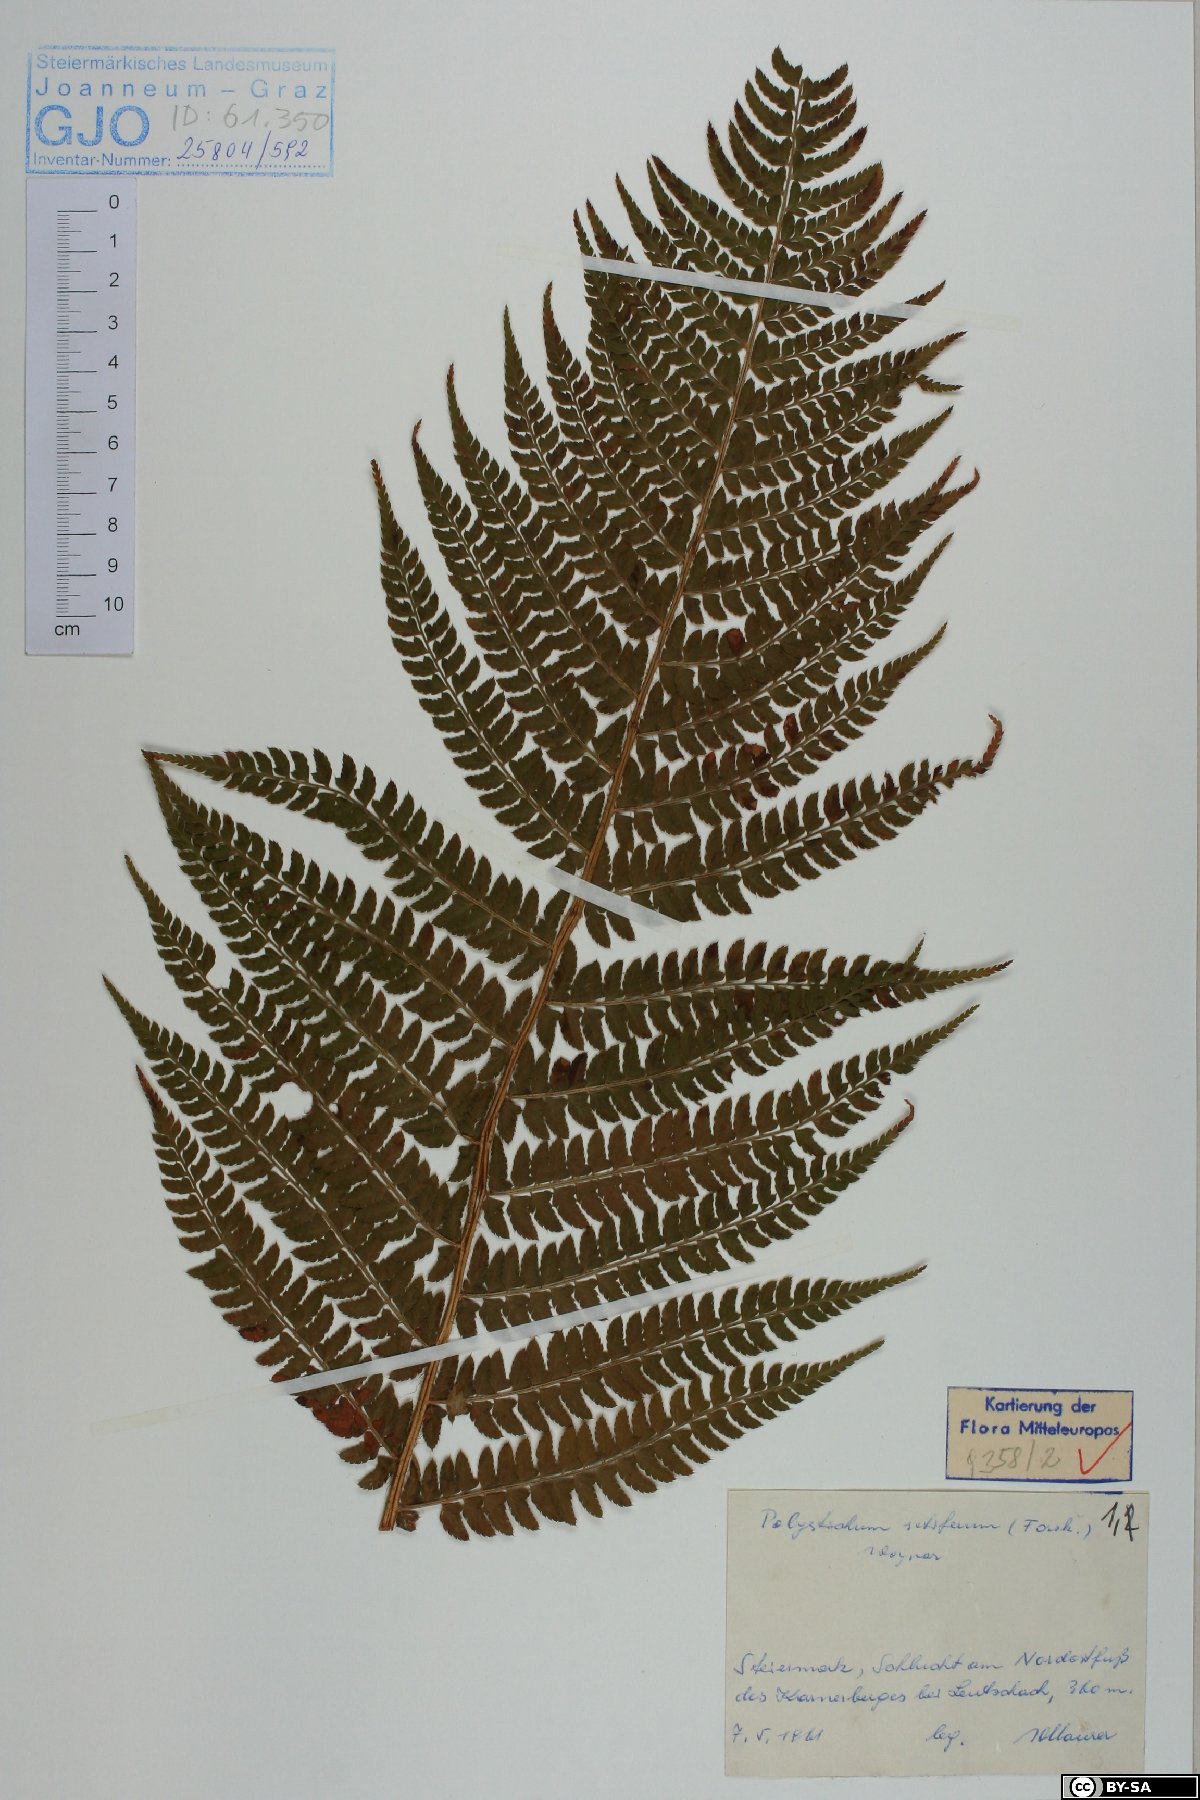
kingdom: Plantae
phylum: Tracheophyta
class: Polypodiopsida
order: Polypodiales
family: Dryopteridaceae
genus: Polystichum
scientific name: Polystichum setiferum
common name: Soft shield-fern
